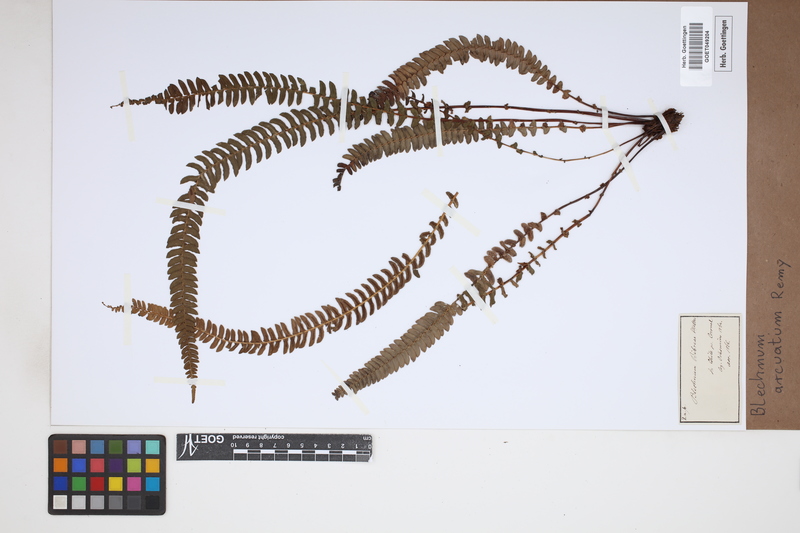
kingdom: Plantae
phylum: Tracheophyta
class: Polypodiopsida
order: Polypodiales
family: Blechnaceae
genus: Blechnum
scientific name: Blechnum arcuatum
